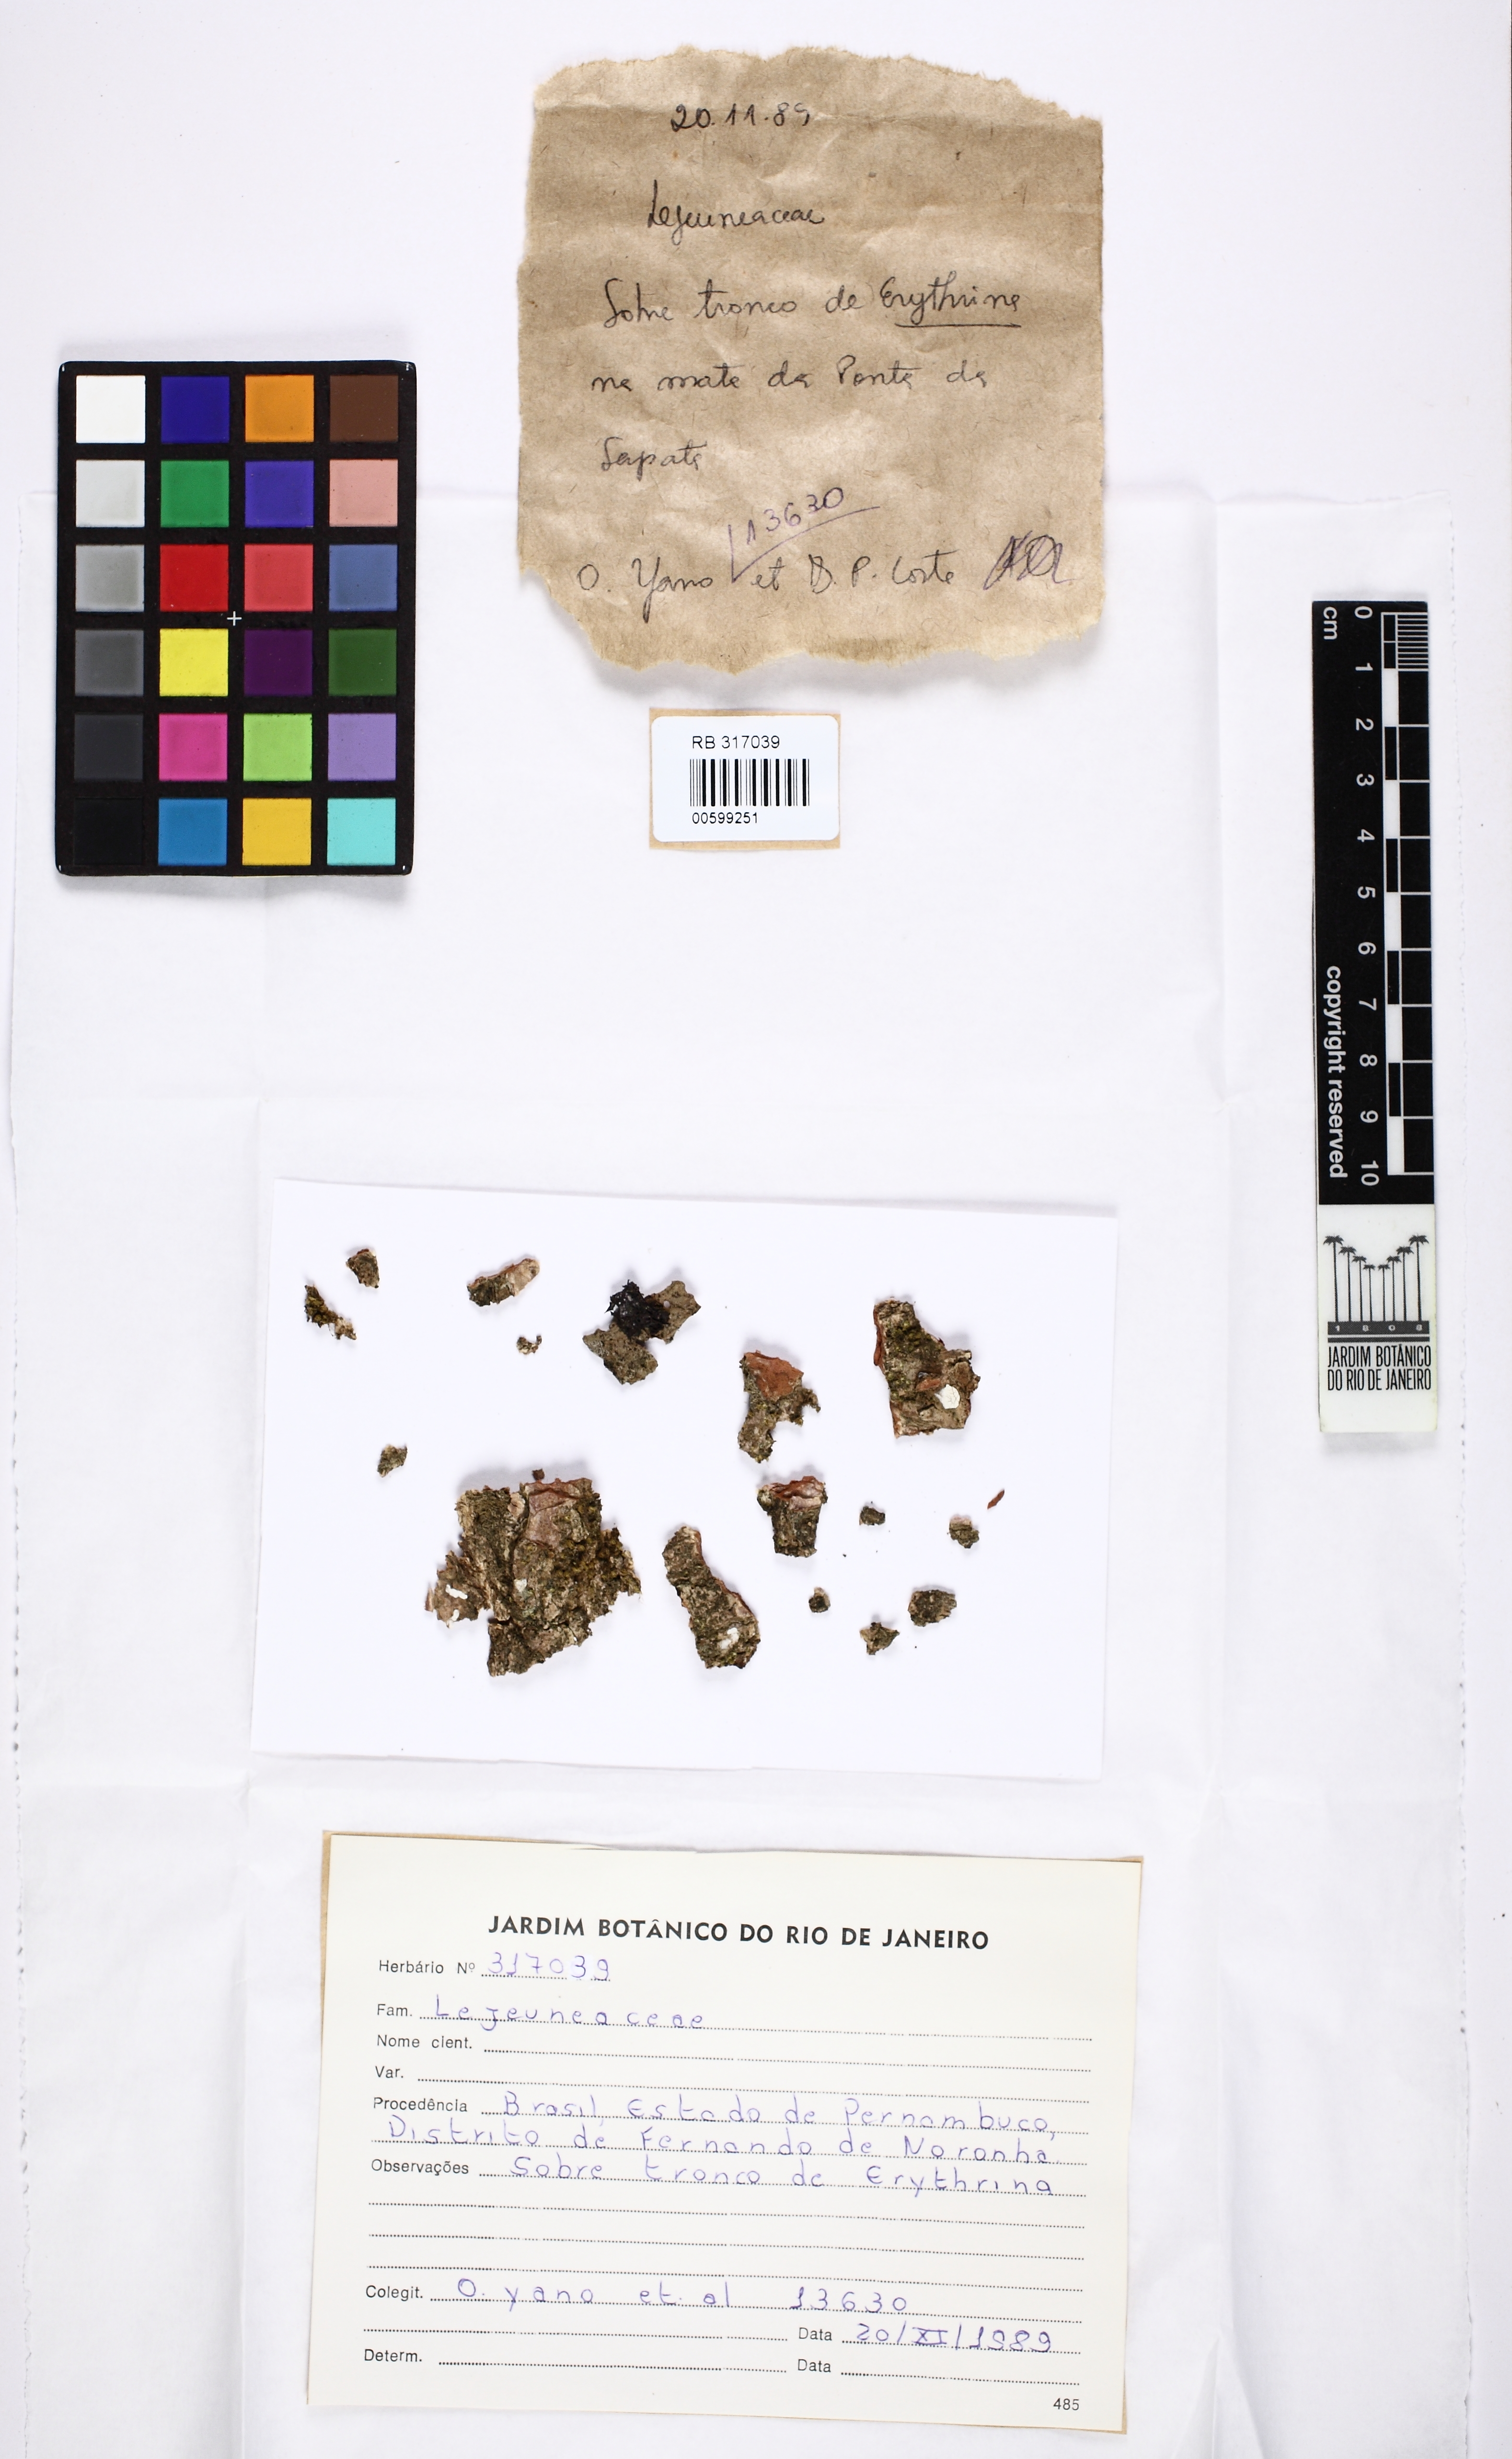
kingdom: Plantae
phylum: Marchantiophyta
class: Jungermanniopsida
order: Porellales
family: Lejeuneaceae
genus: Lejeunea
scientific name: Lejeunea laetevirens
